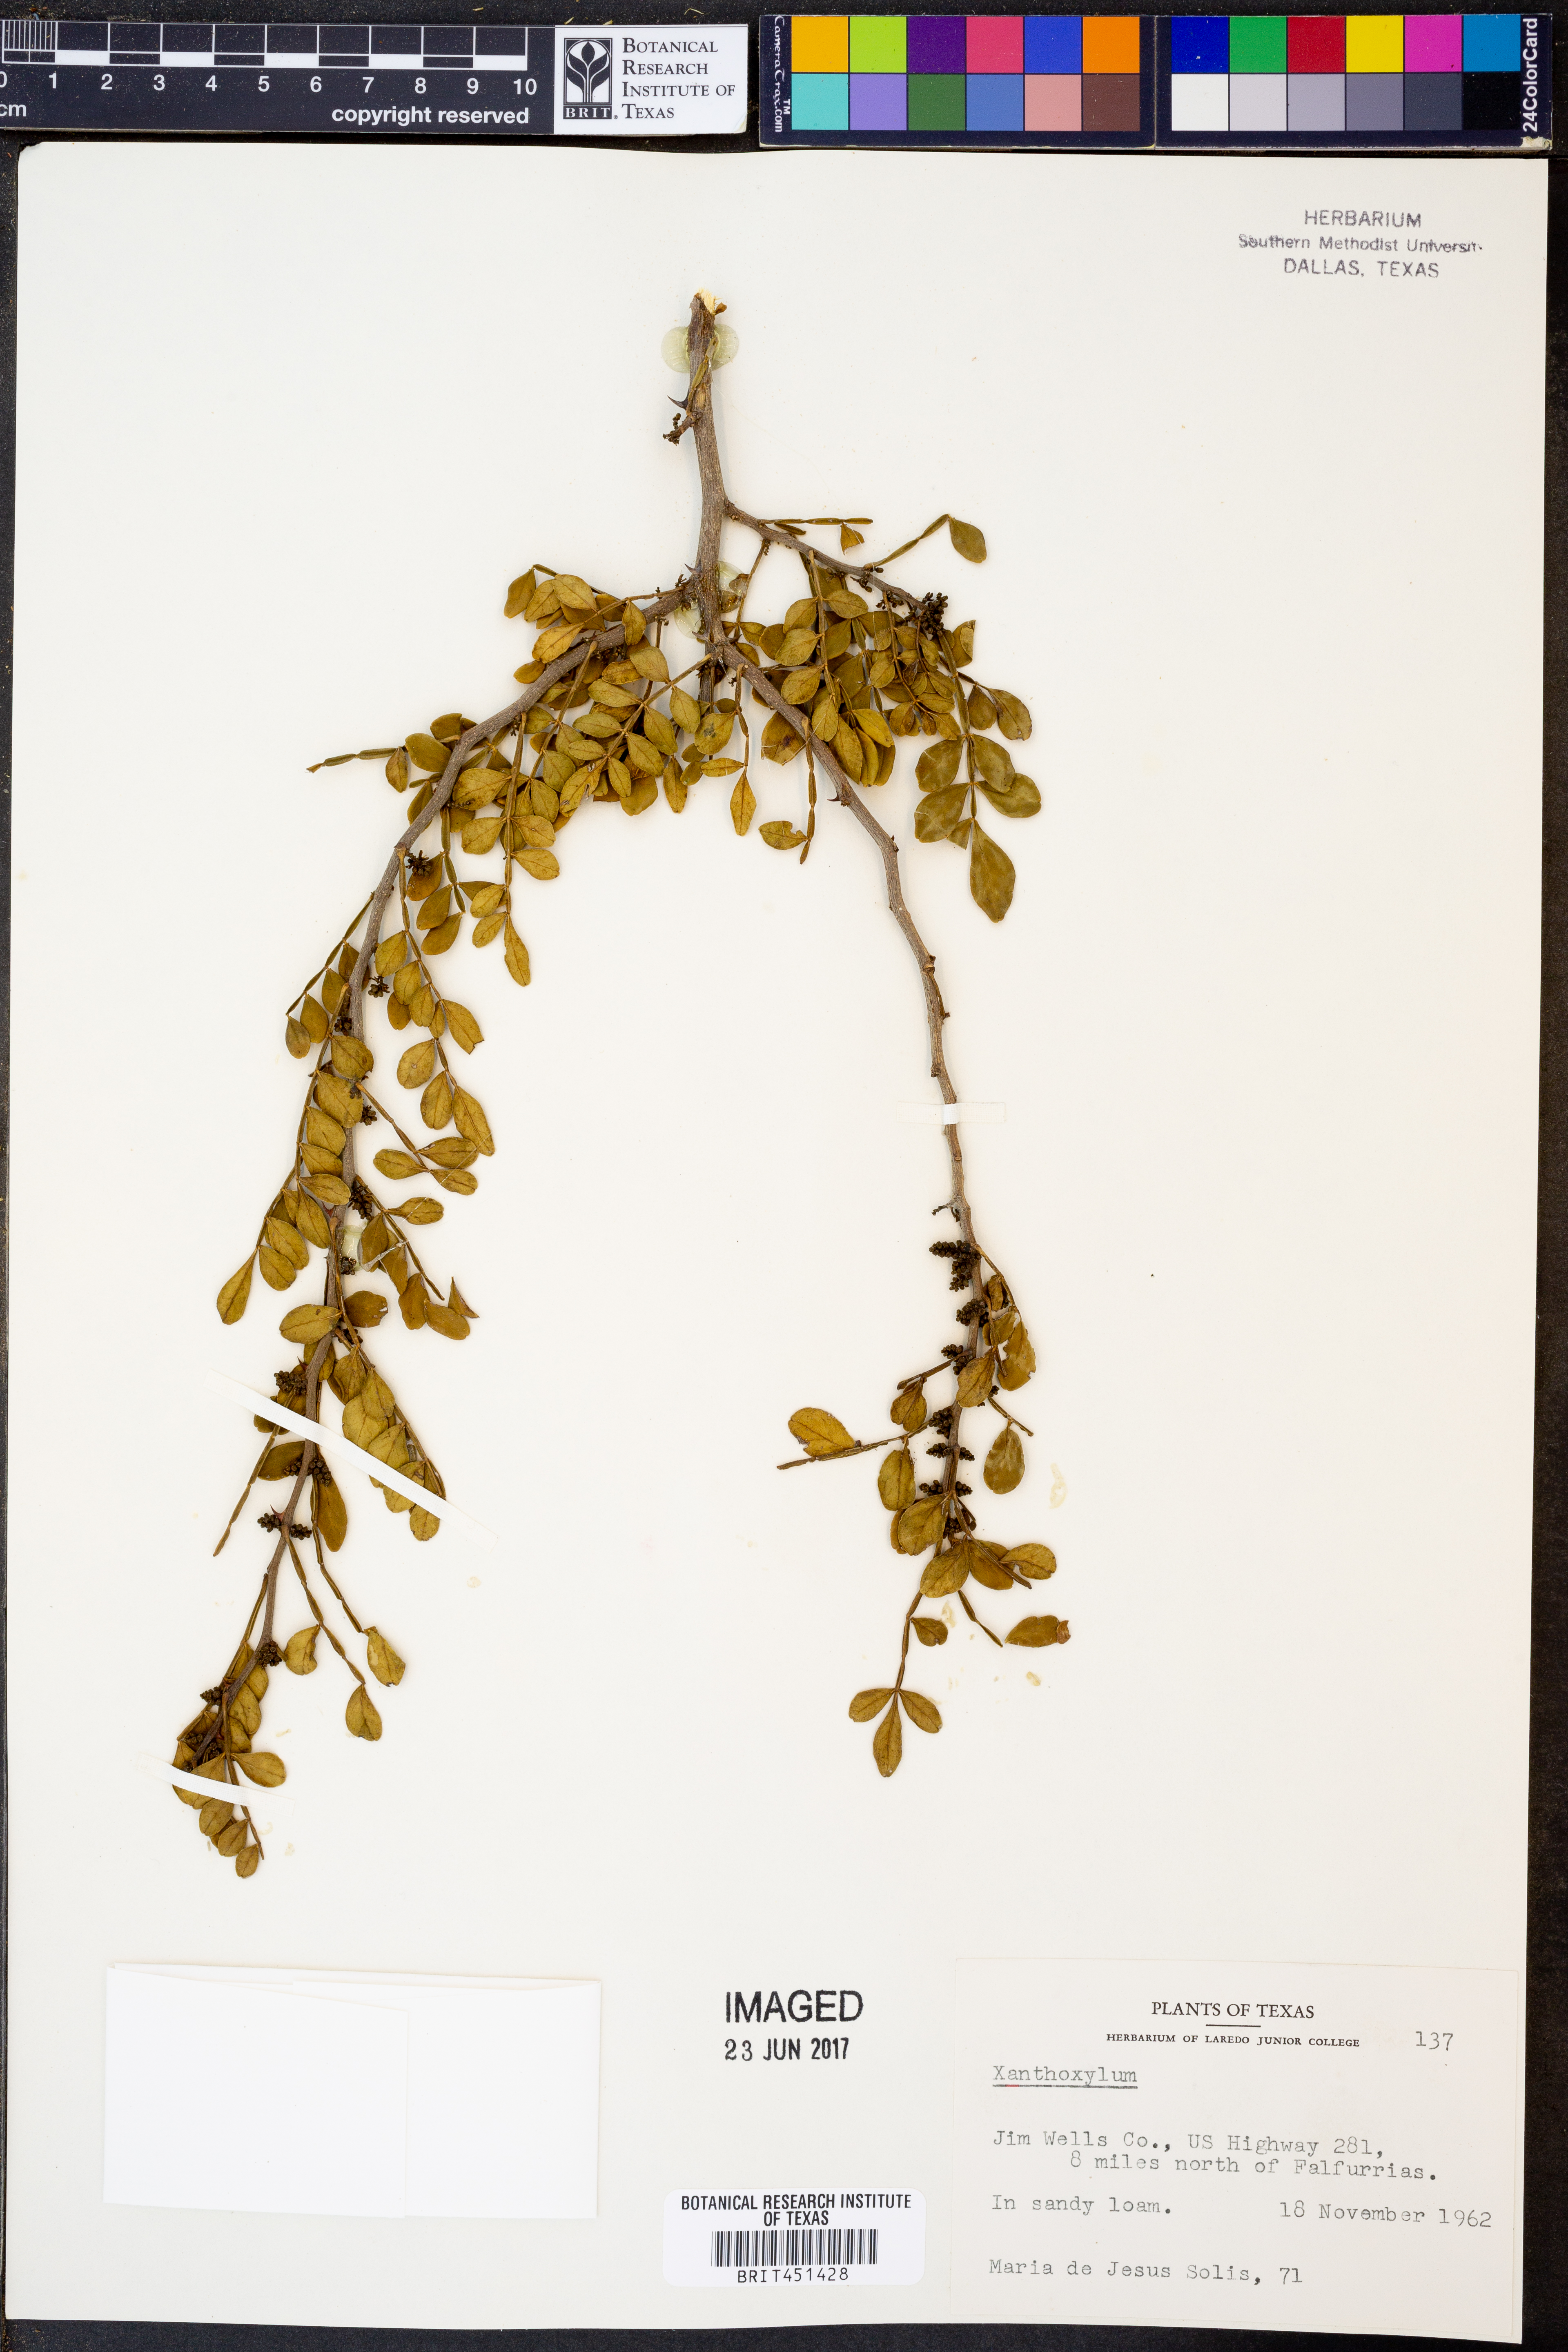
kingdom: Plantae
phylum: Tracheophyta
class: Magnoliopsida
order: Sapindales
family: Rutaceae
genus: Zanthoxylum
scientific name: Zanthoxylum
